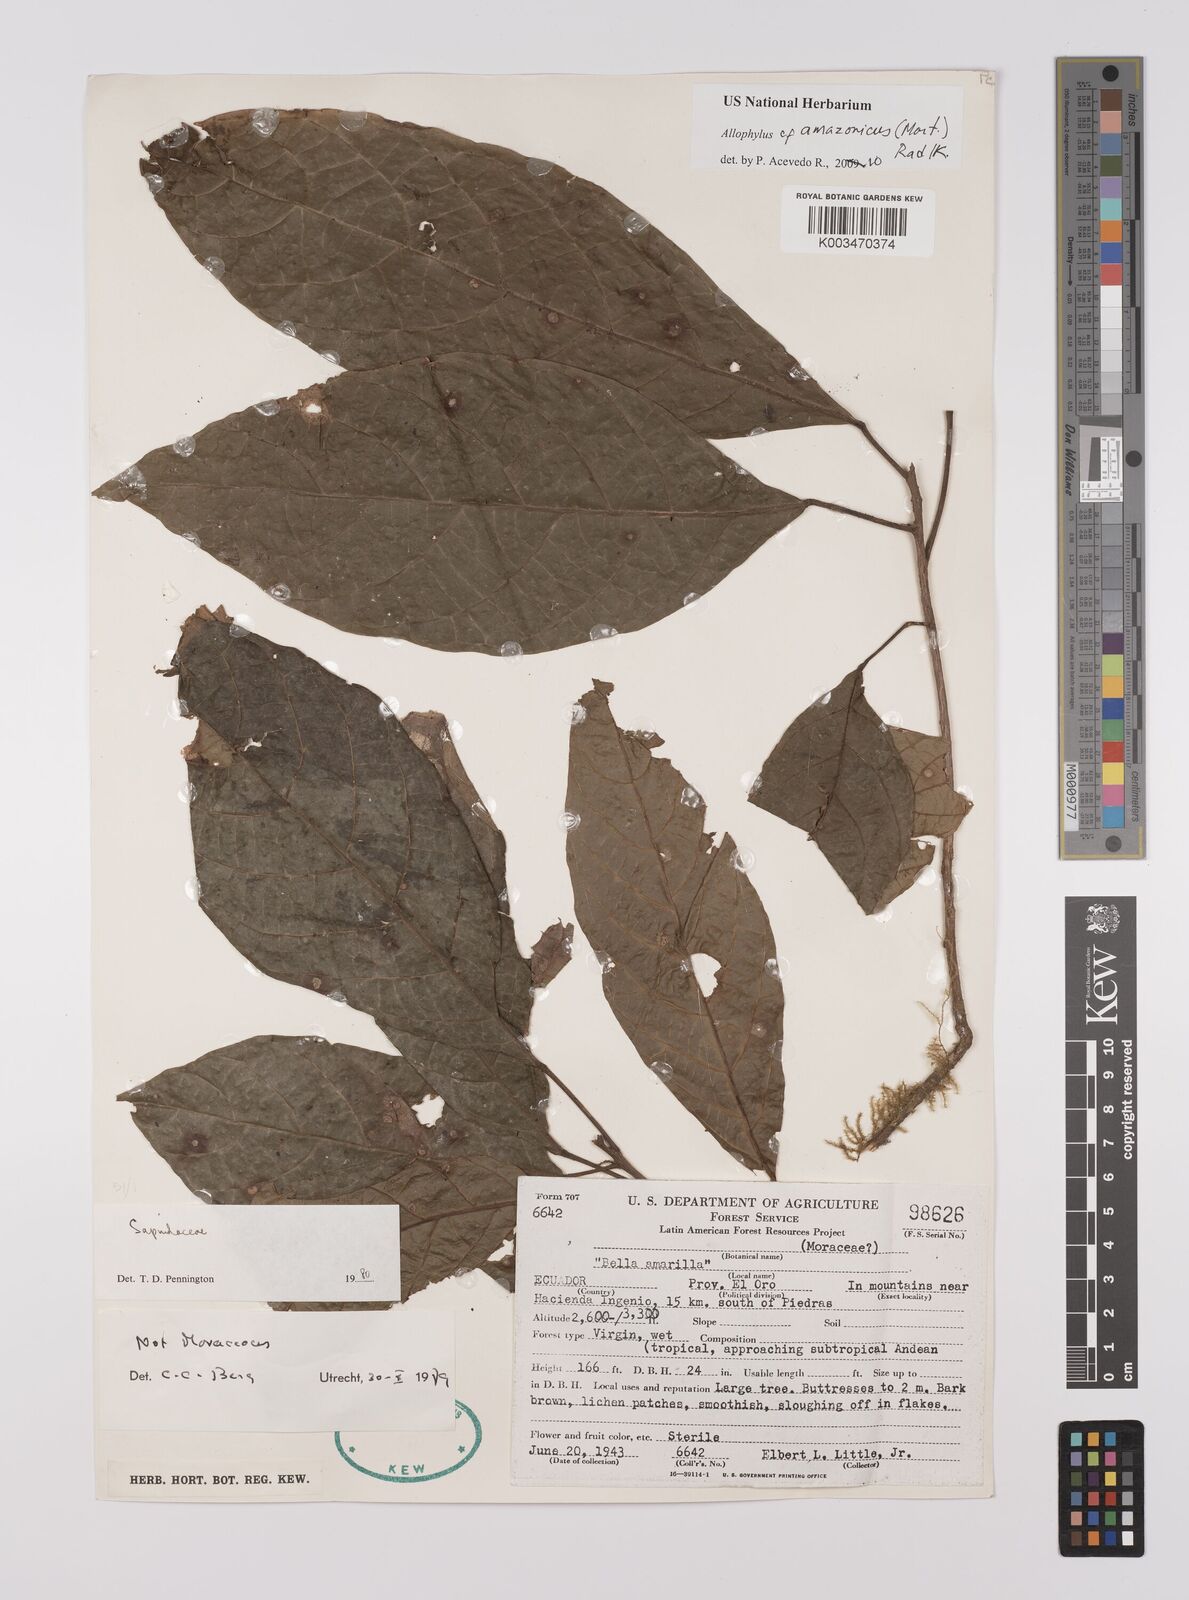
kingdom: Plantae
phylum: Tracheophyta
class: Magnoliopsida
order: Sapindales
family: Sapindaceae
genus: Allophylus
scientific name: Allophylus amazonicus
